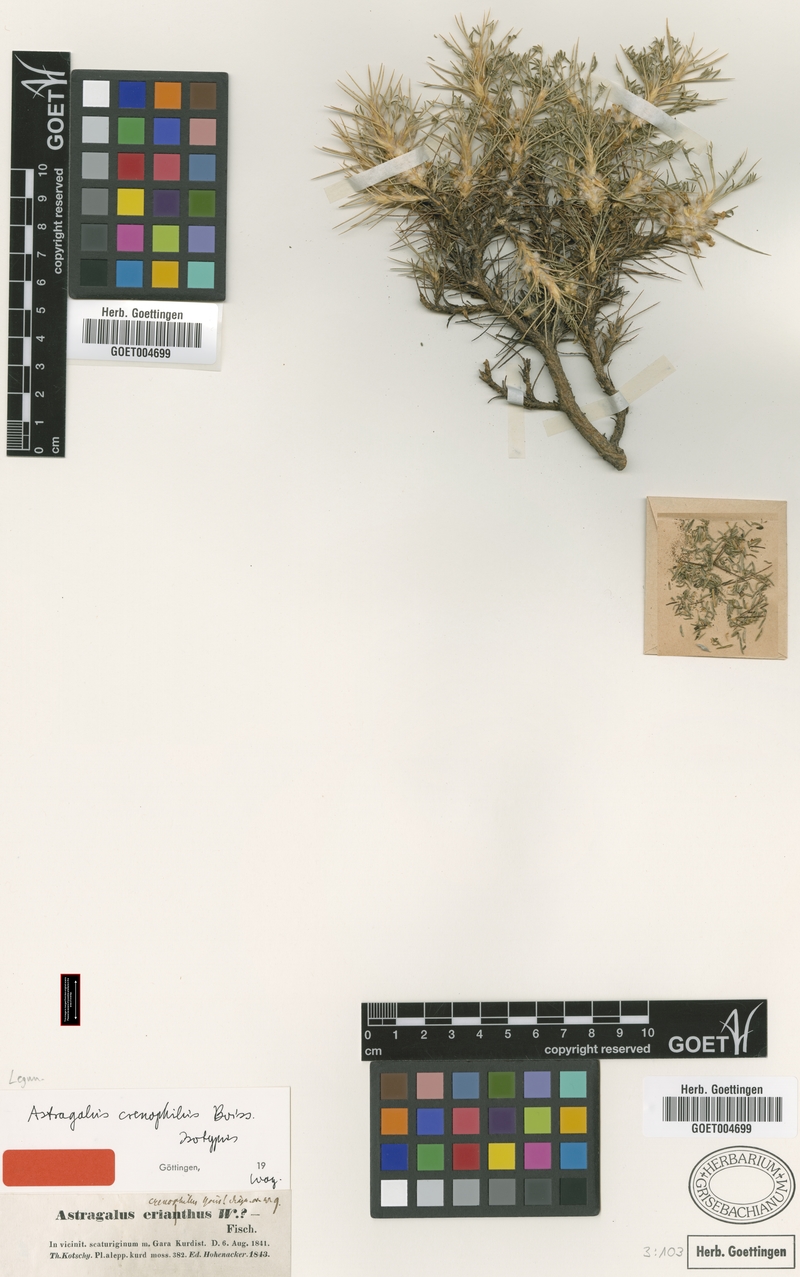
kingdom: Plantae
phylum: Tracheophyta
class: Magnoliopsida
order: Fabales
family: Fabaceae
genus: Astragalus
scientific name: Astragalus caspicus
